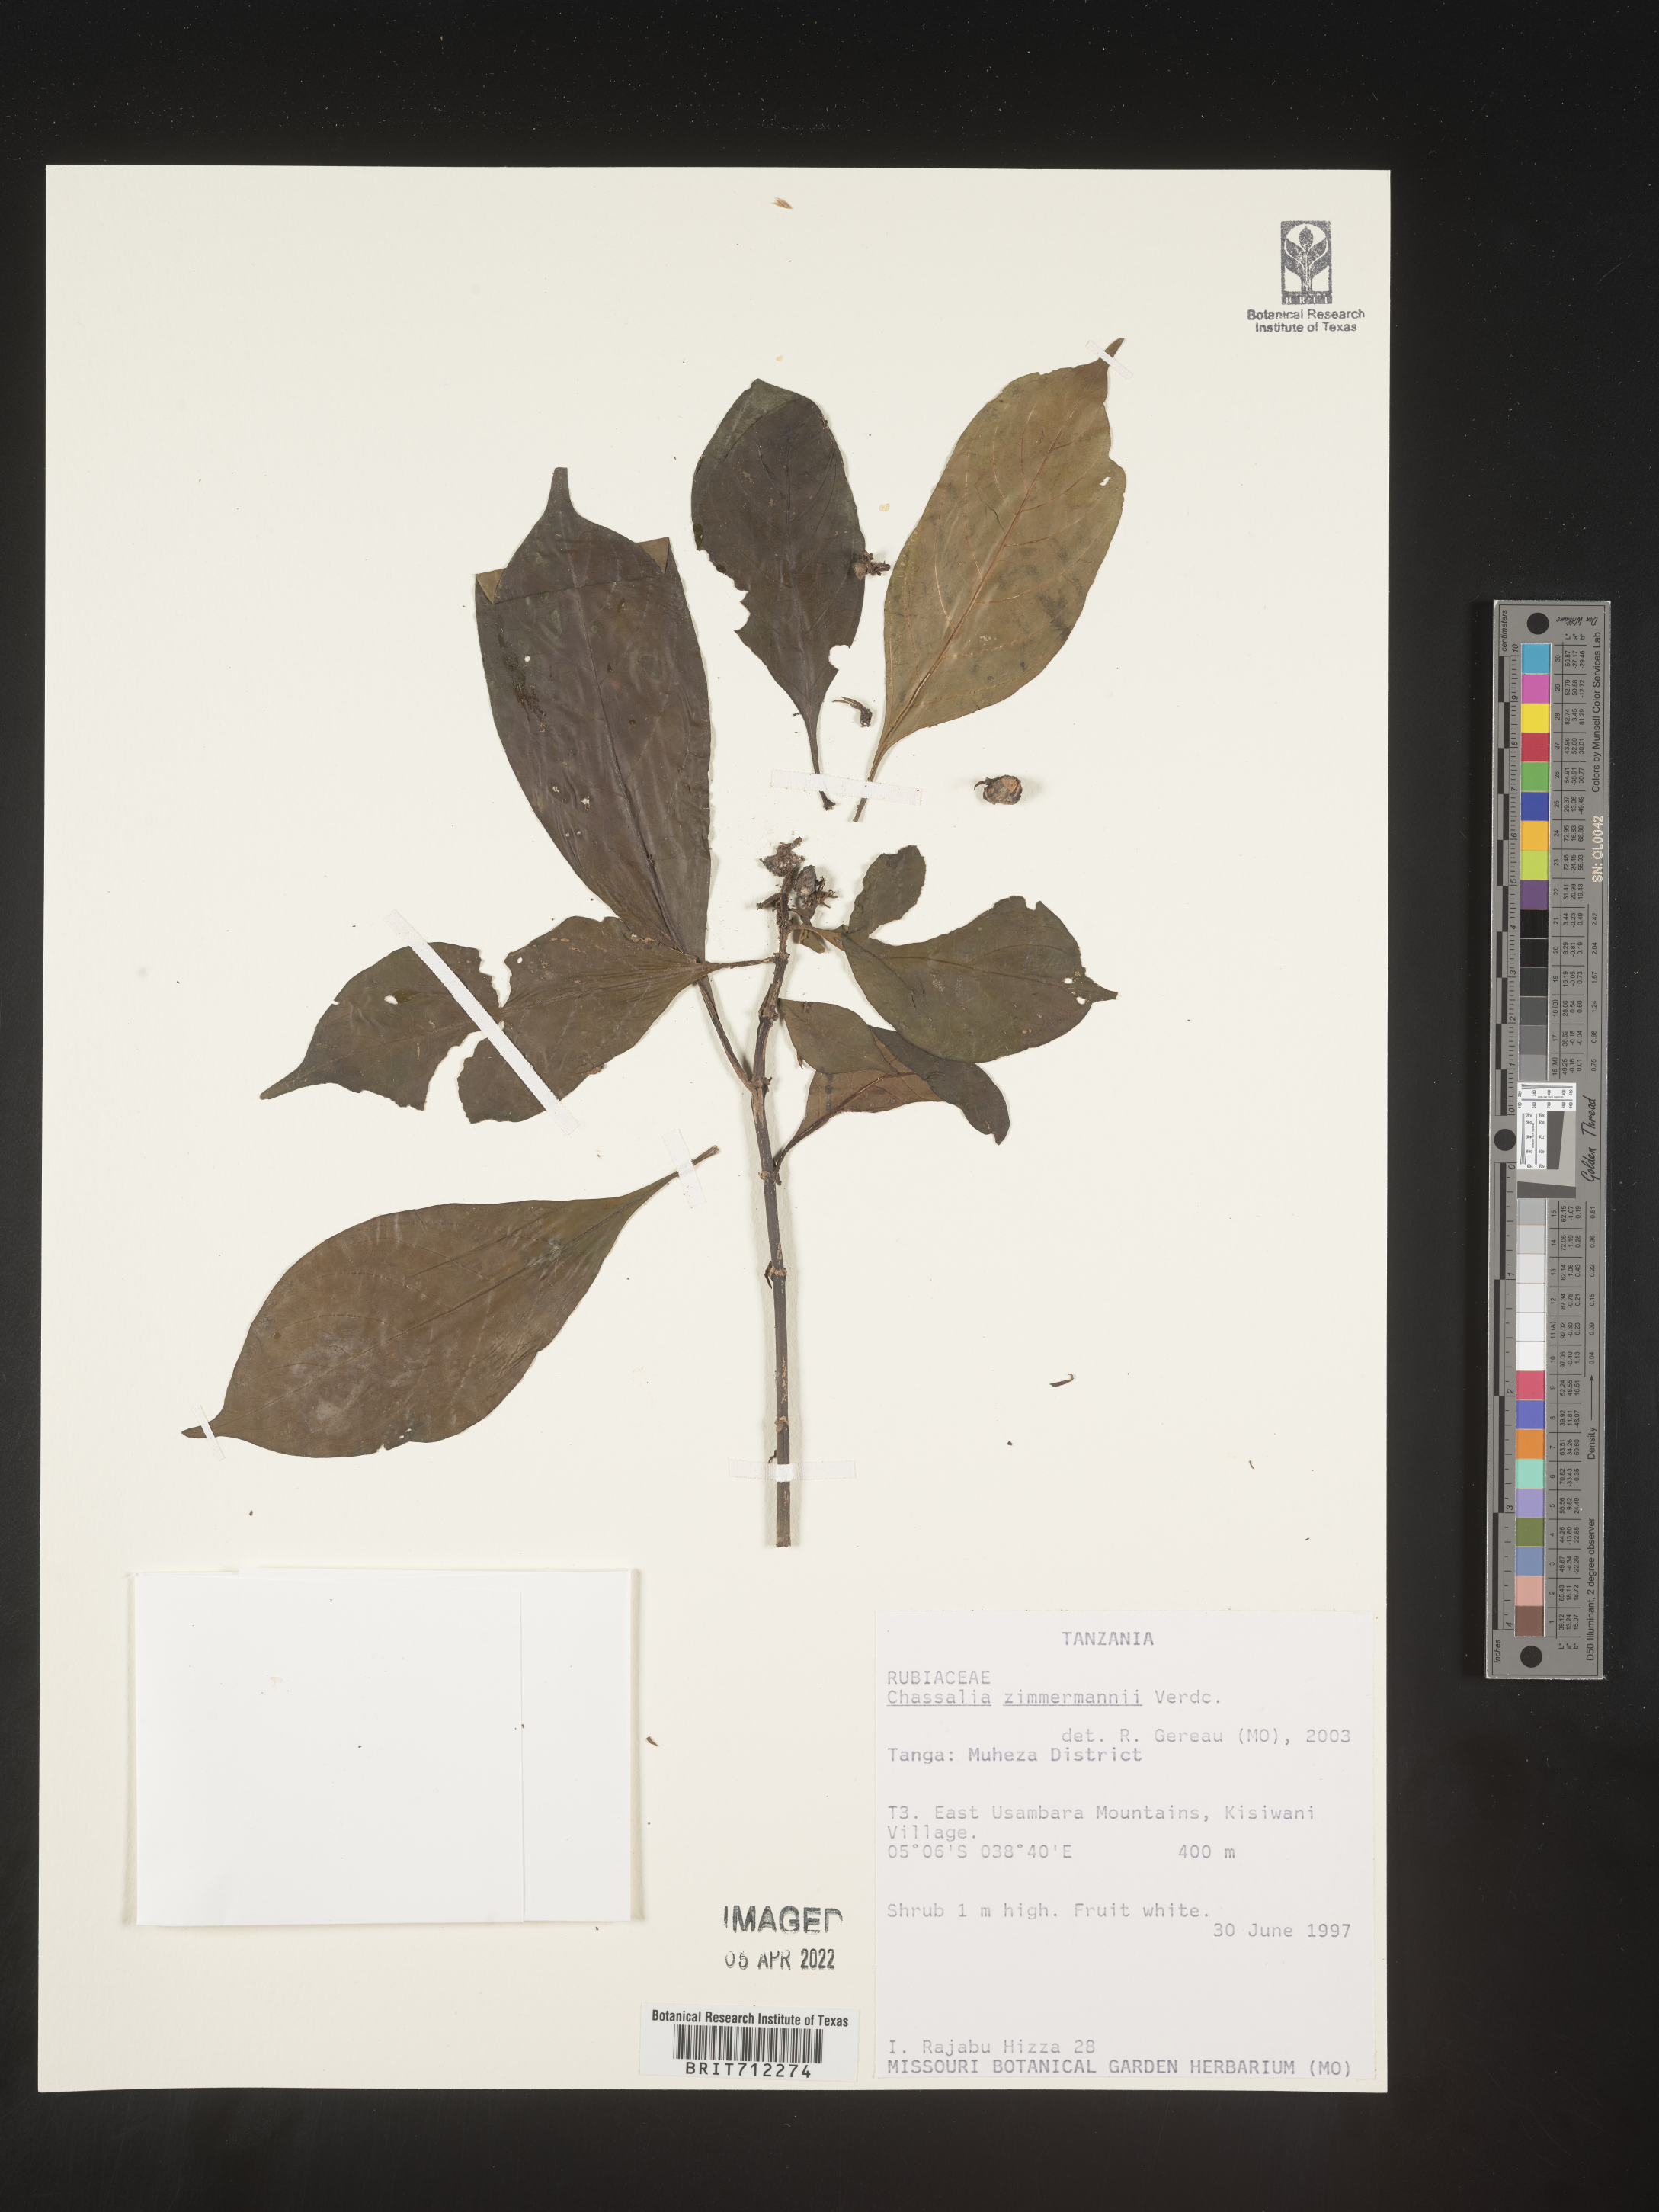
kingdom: Plantae
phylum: Tracheophyta
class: Magnoliopsida
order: Gentianales
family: Rubiaceae
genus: Chassalia
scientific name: Chassalia
